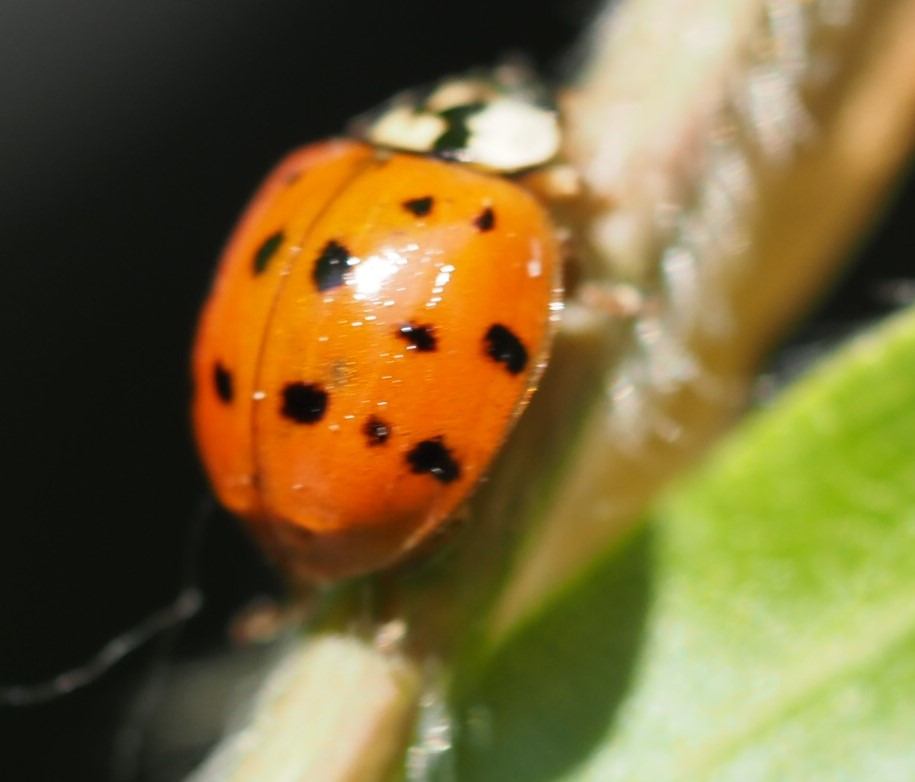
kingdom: Animalia
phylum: Arthropoda
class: Insecta
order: Coleoptera
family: Coccinellidae
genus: Harmonia
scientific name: Harmonia axyridis
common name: Harlekinmariehøne
